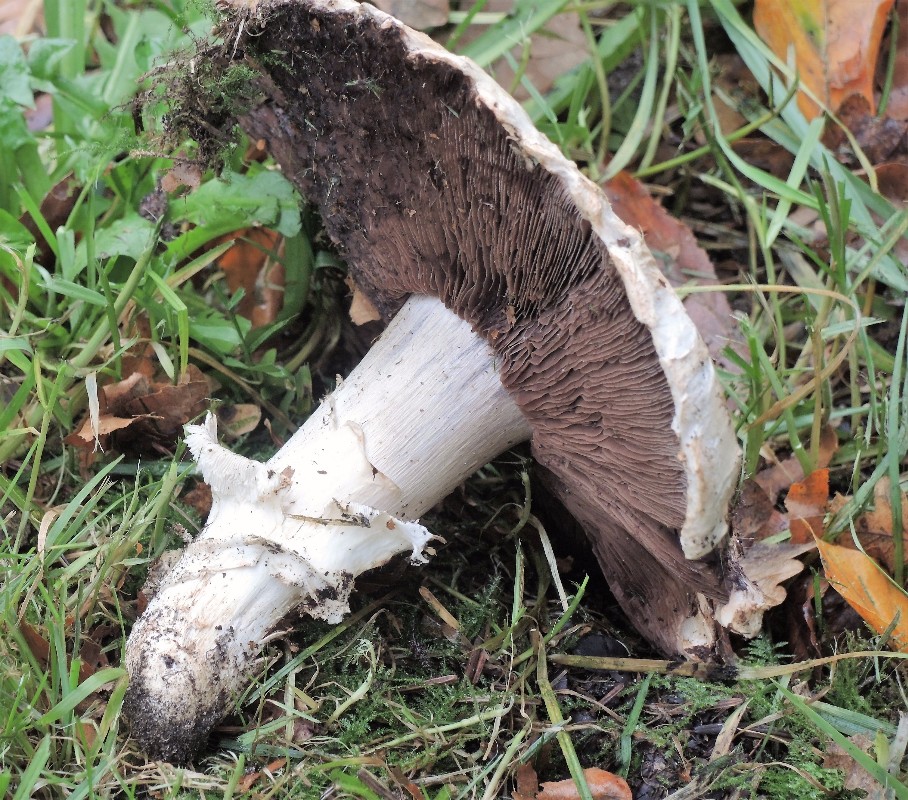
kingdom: Fungi
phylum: Basidiomycota
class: Agaricomycetes
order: Agaricales
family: Agaricaceae
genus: Agaricus
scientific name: Agaricus bitorquis
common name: vej-champignon
